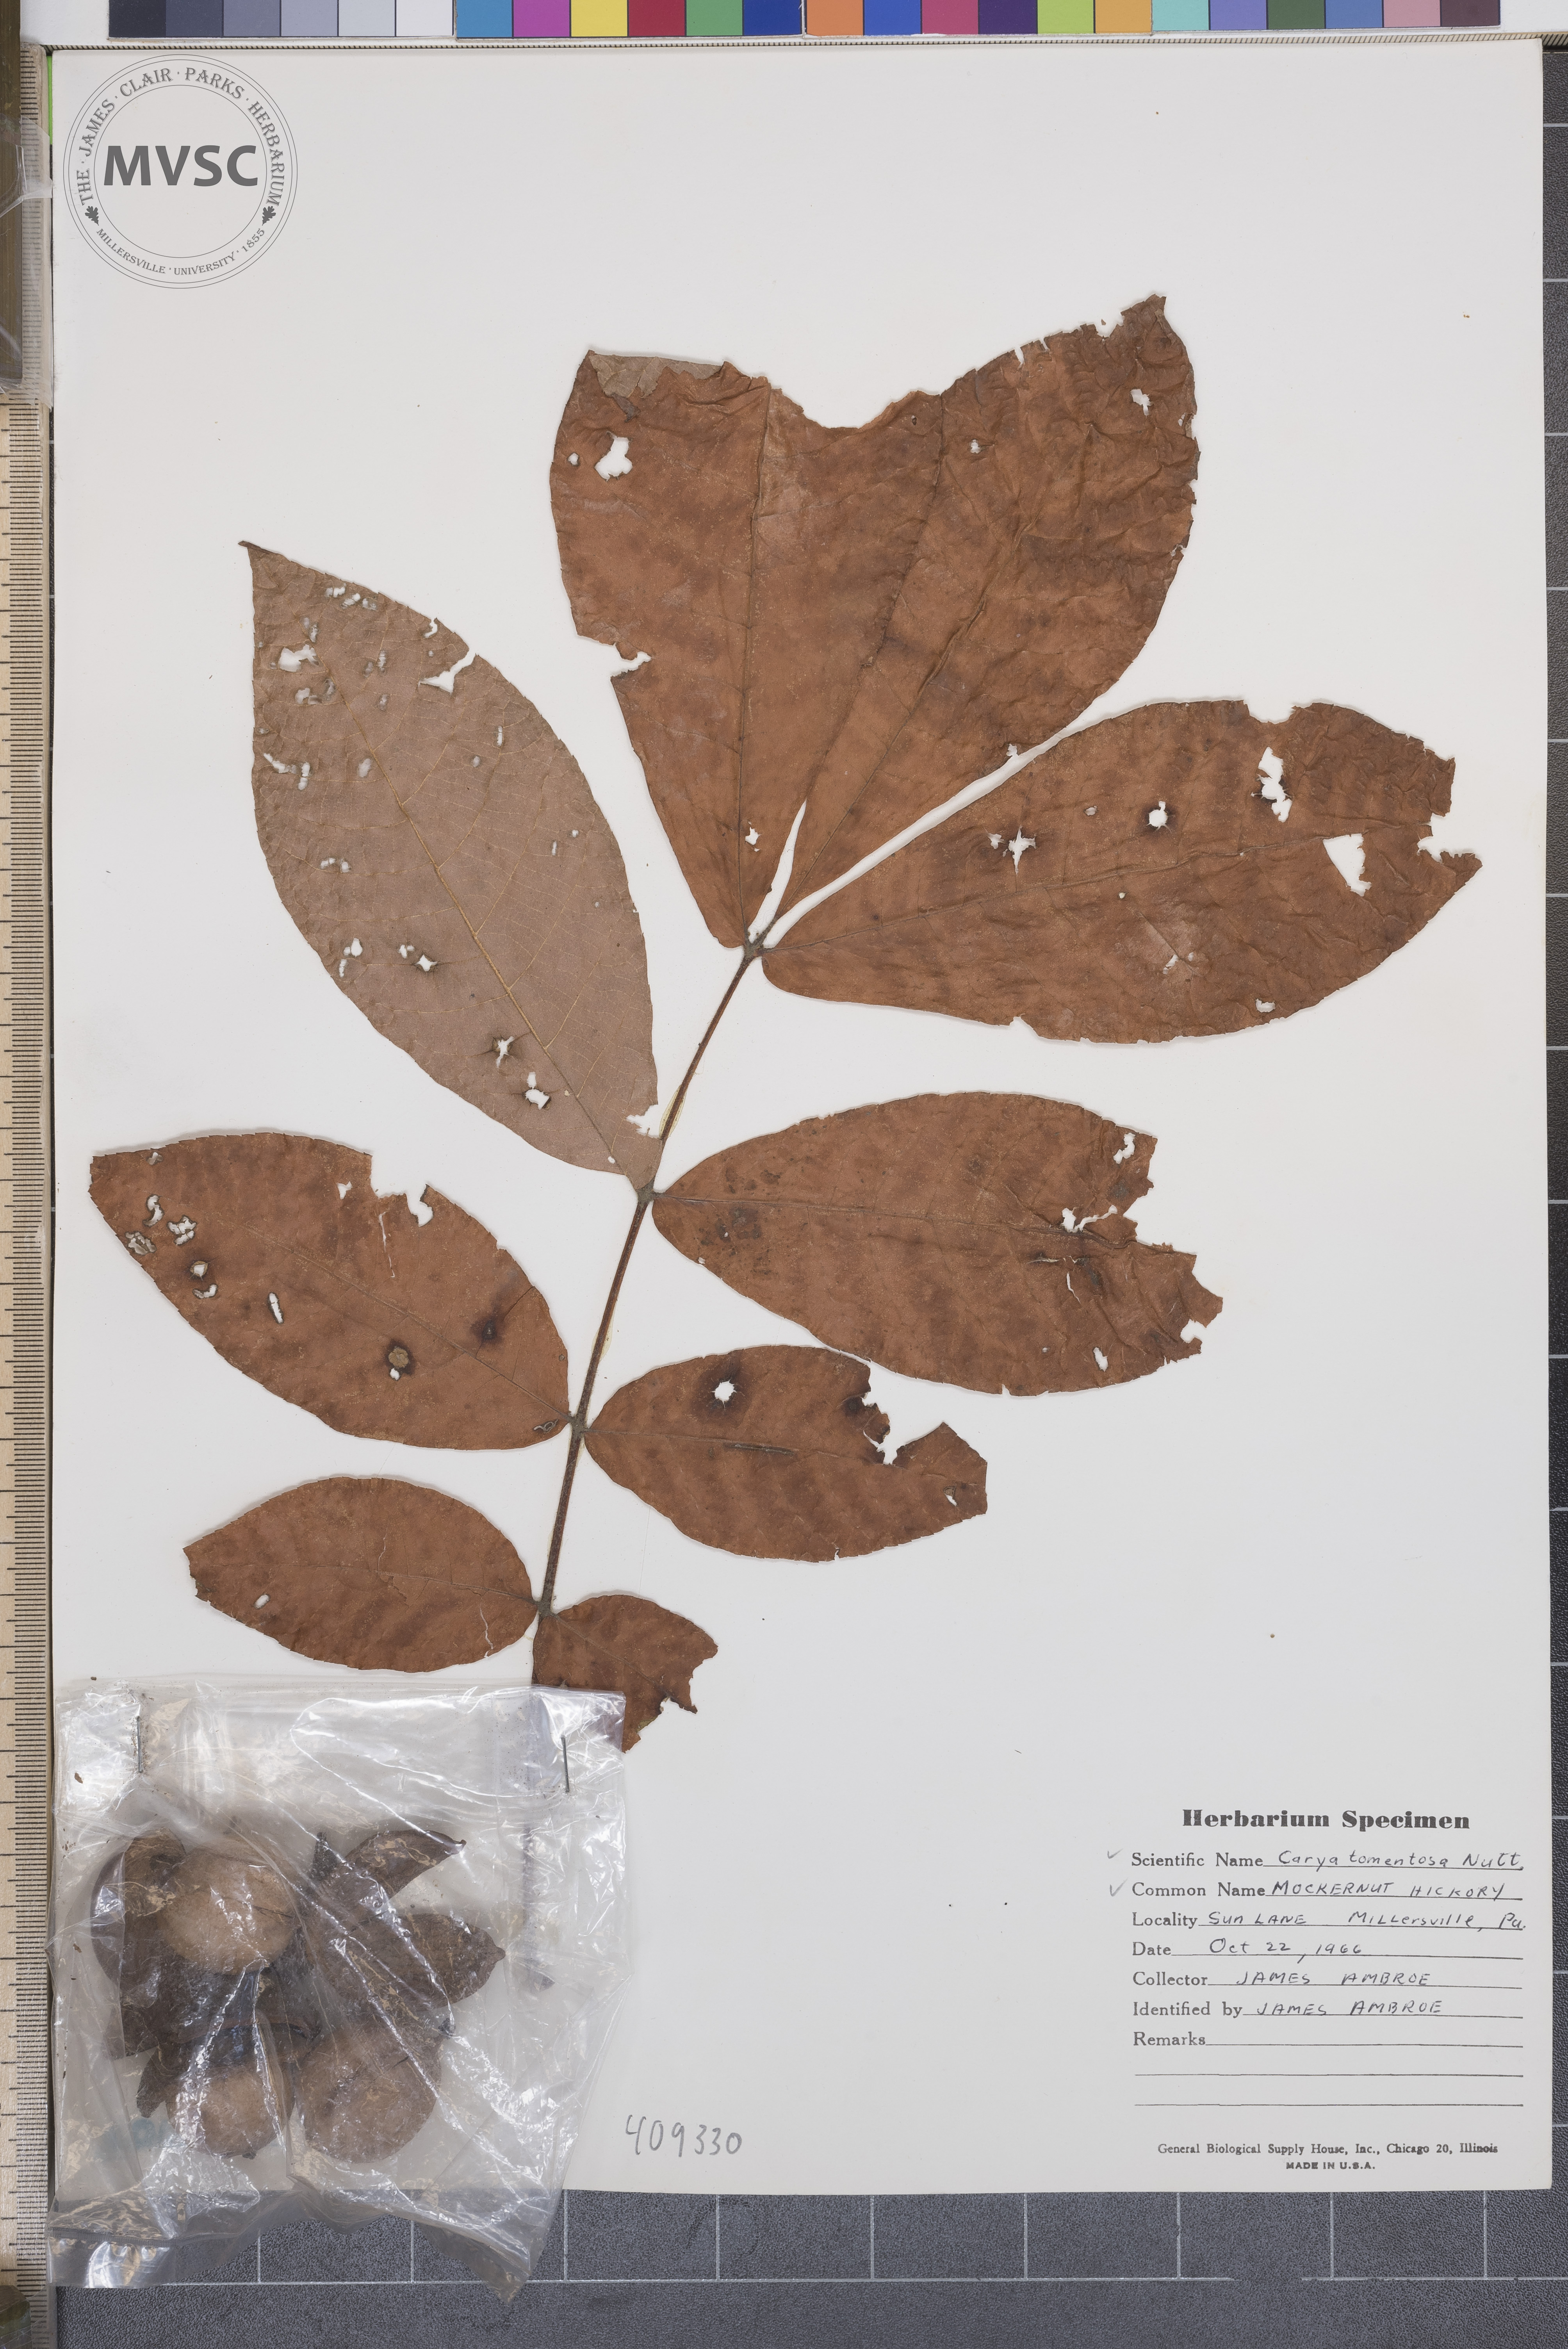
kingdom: Plantae
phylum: Tracheophyta
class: Magnoliopsida
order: Fagales
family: Juglandaceae
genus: Carya
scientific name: Carya alba
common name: Mockernut hickory
